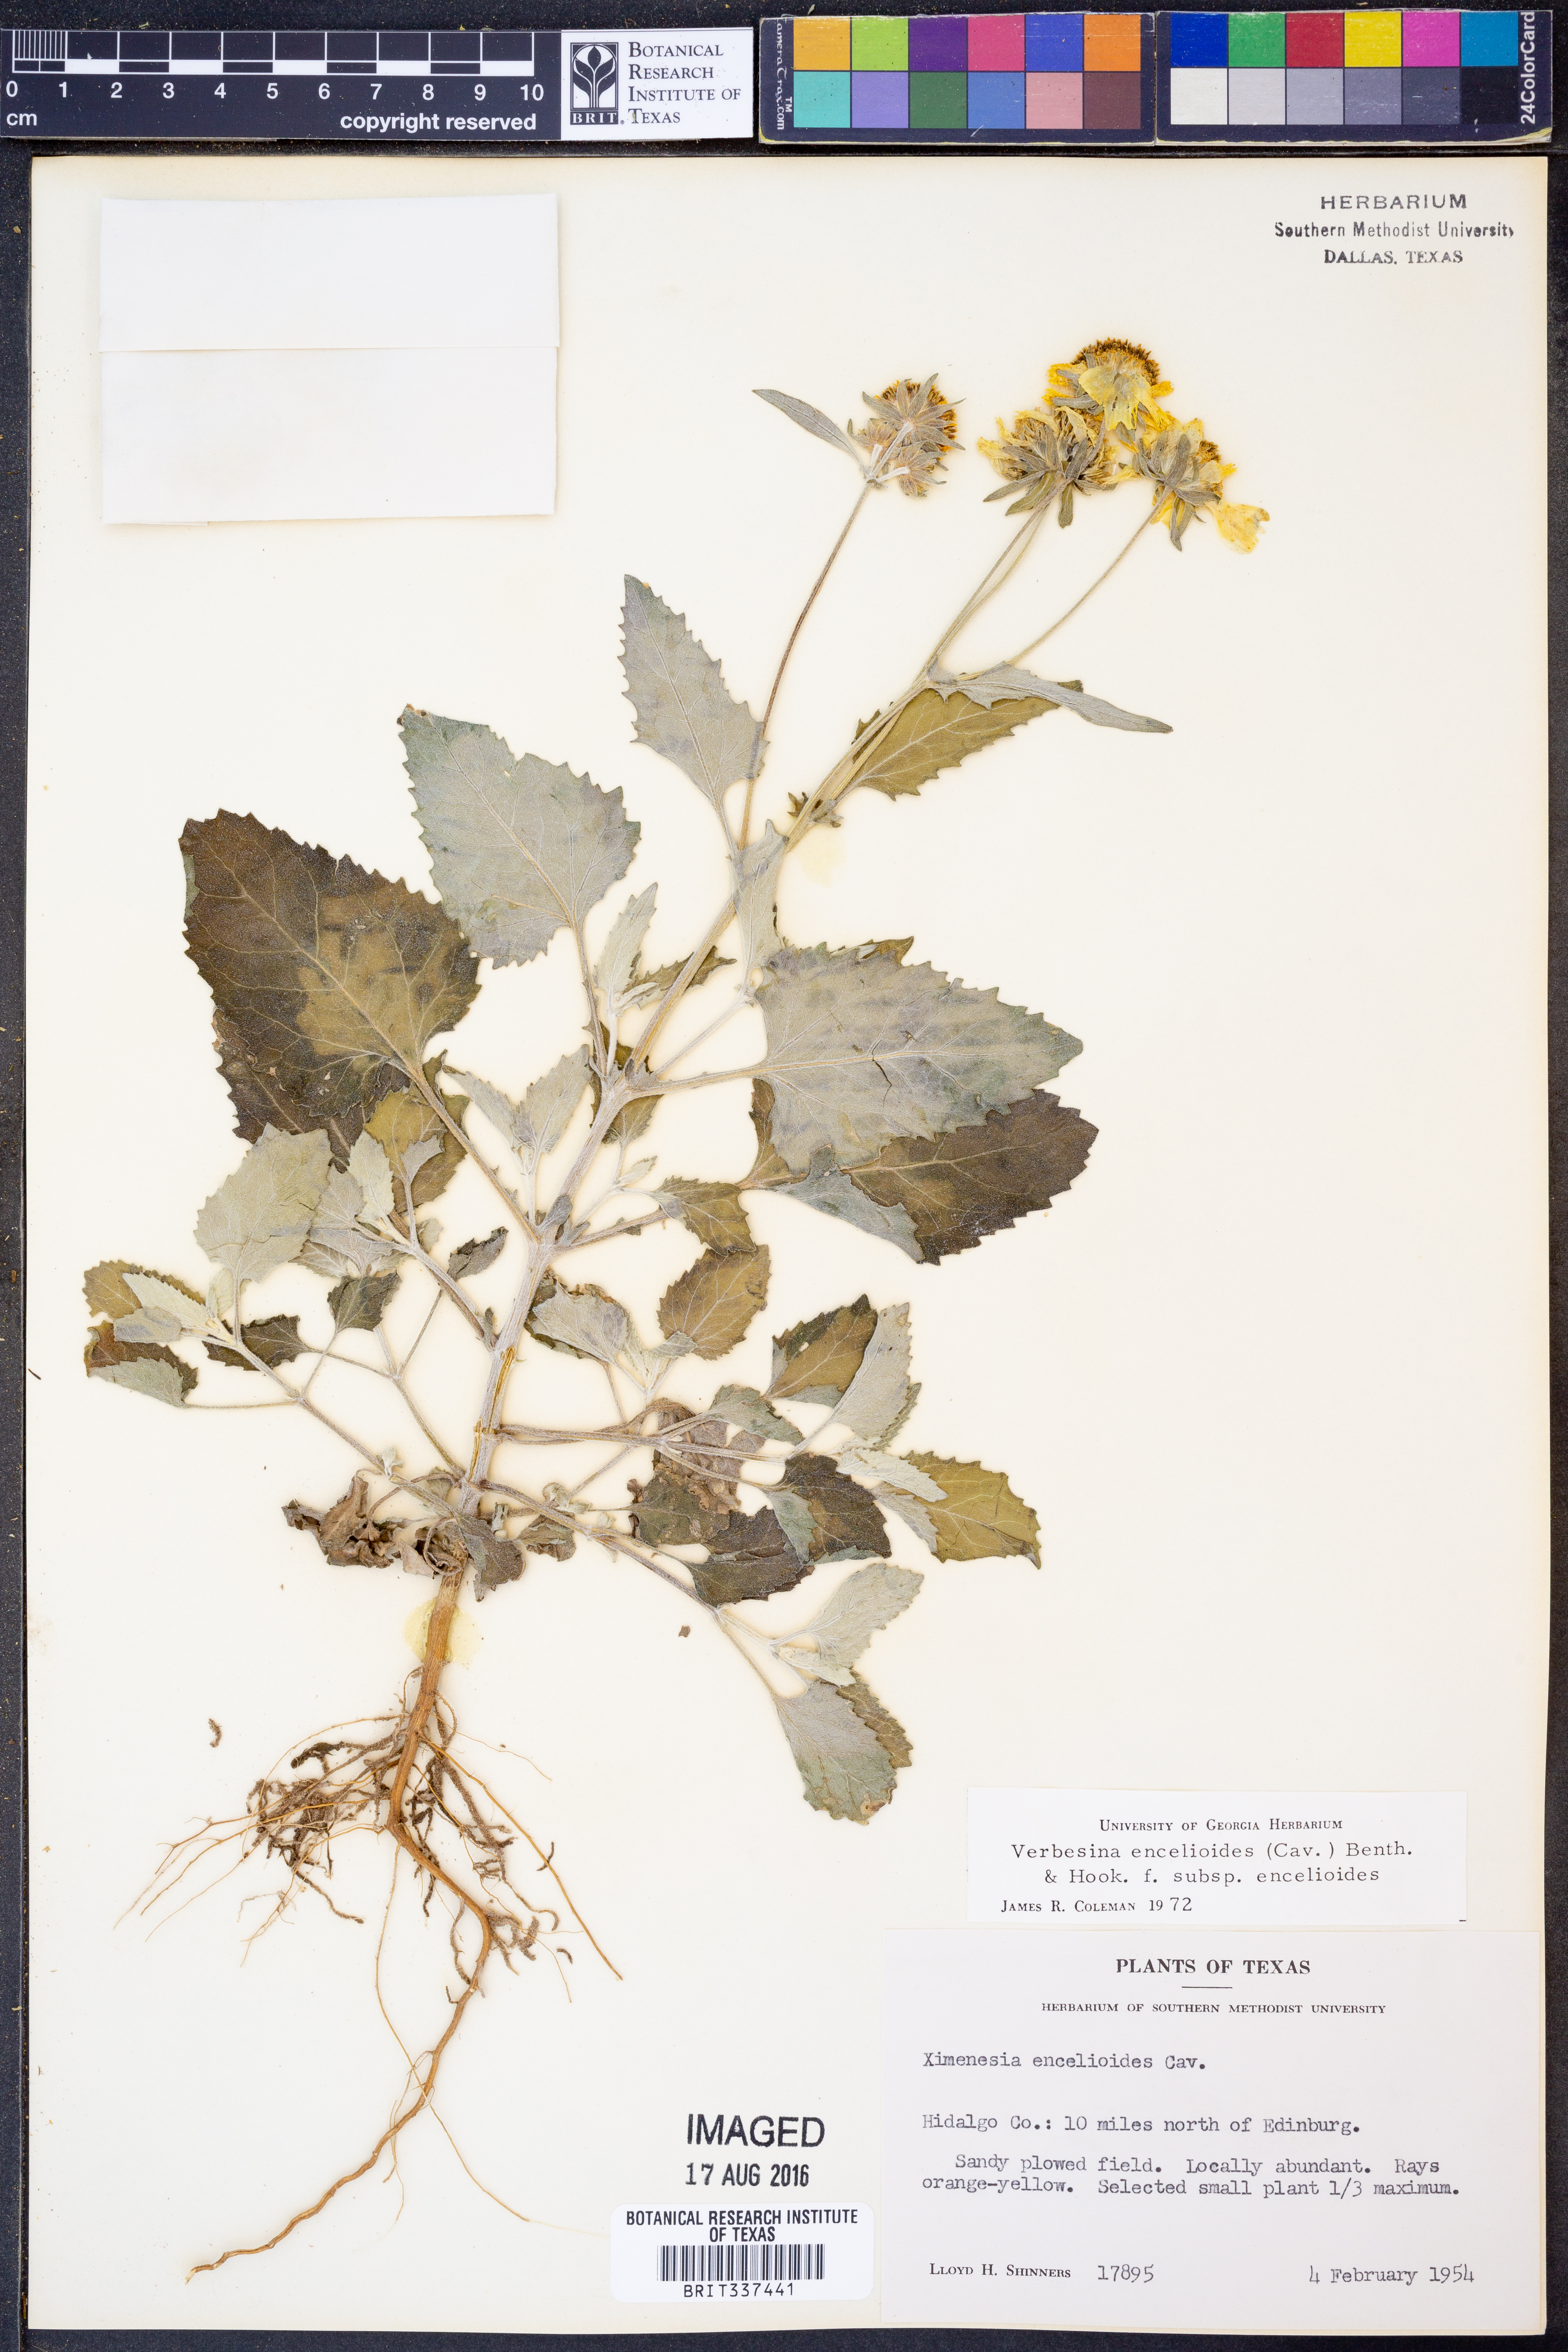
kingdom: Plantae
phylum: Tracheophyta
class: Magnoliopsida
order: Asterales
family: Asteraceae
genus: Verbesina
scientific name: Verbesina encelioides
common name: Golden crownbeard
